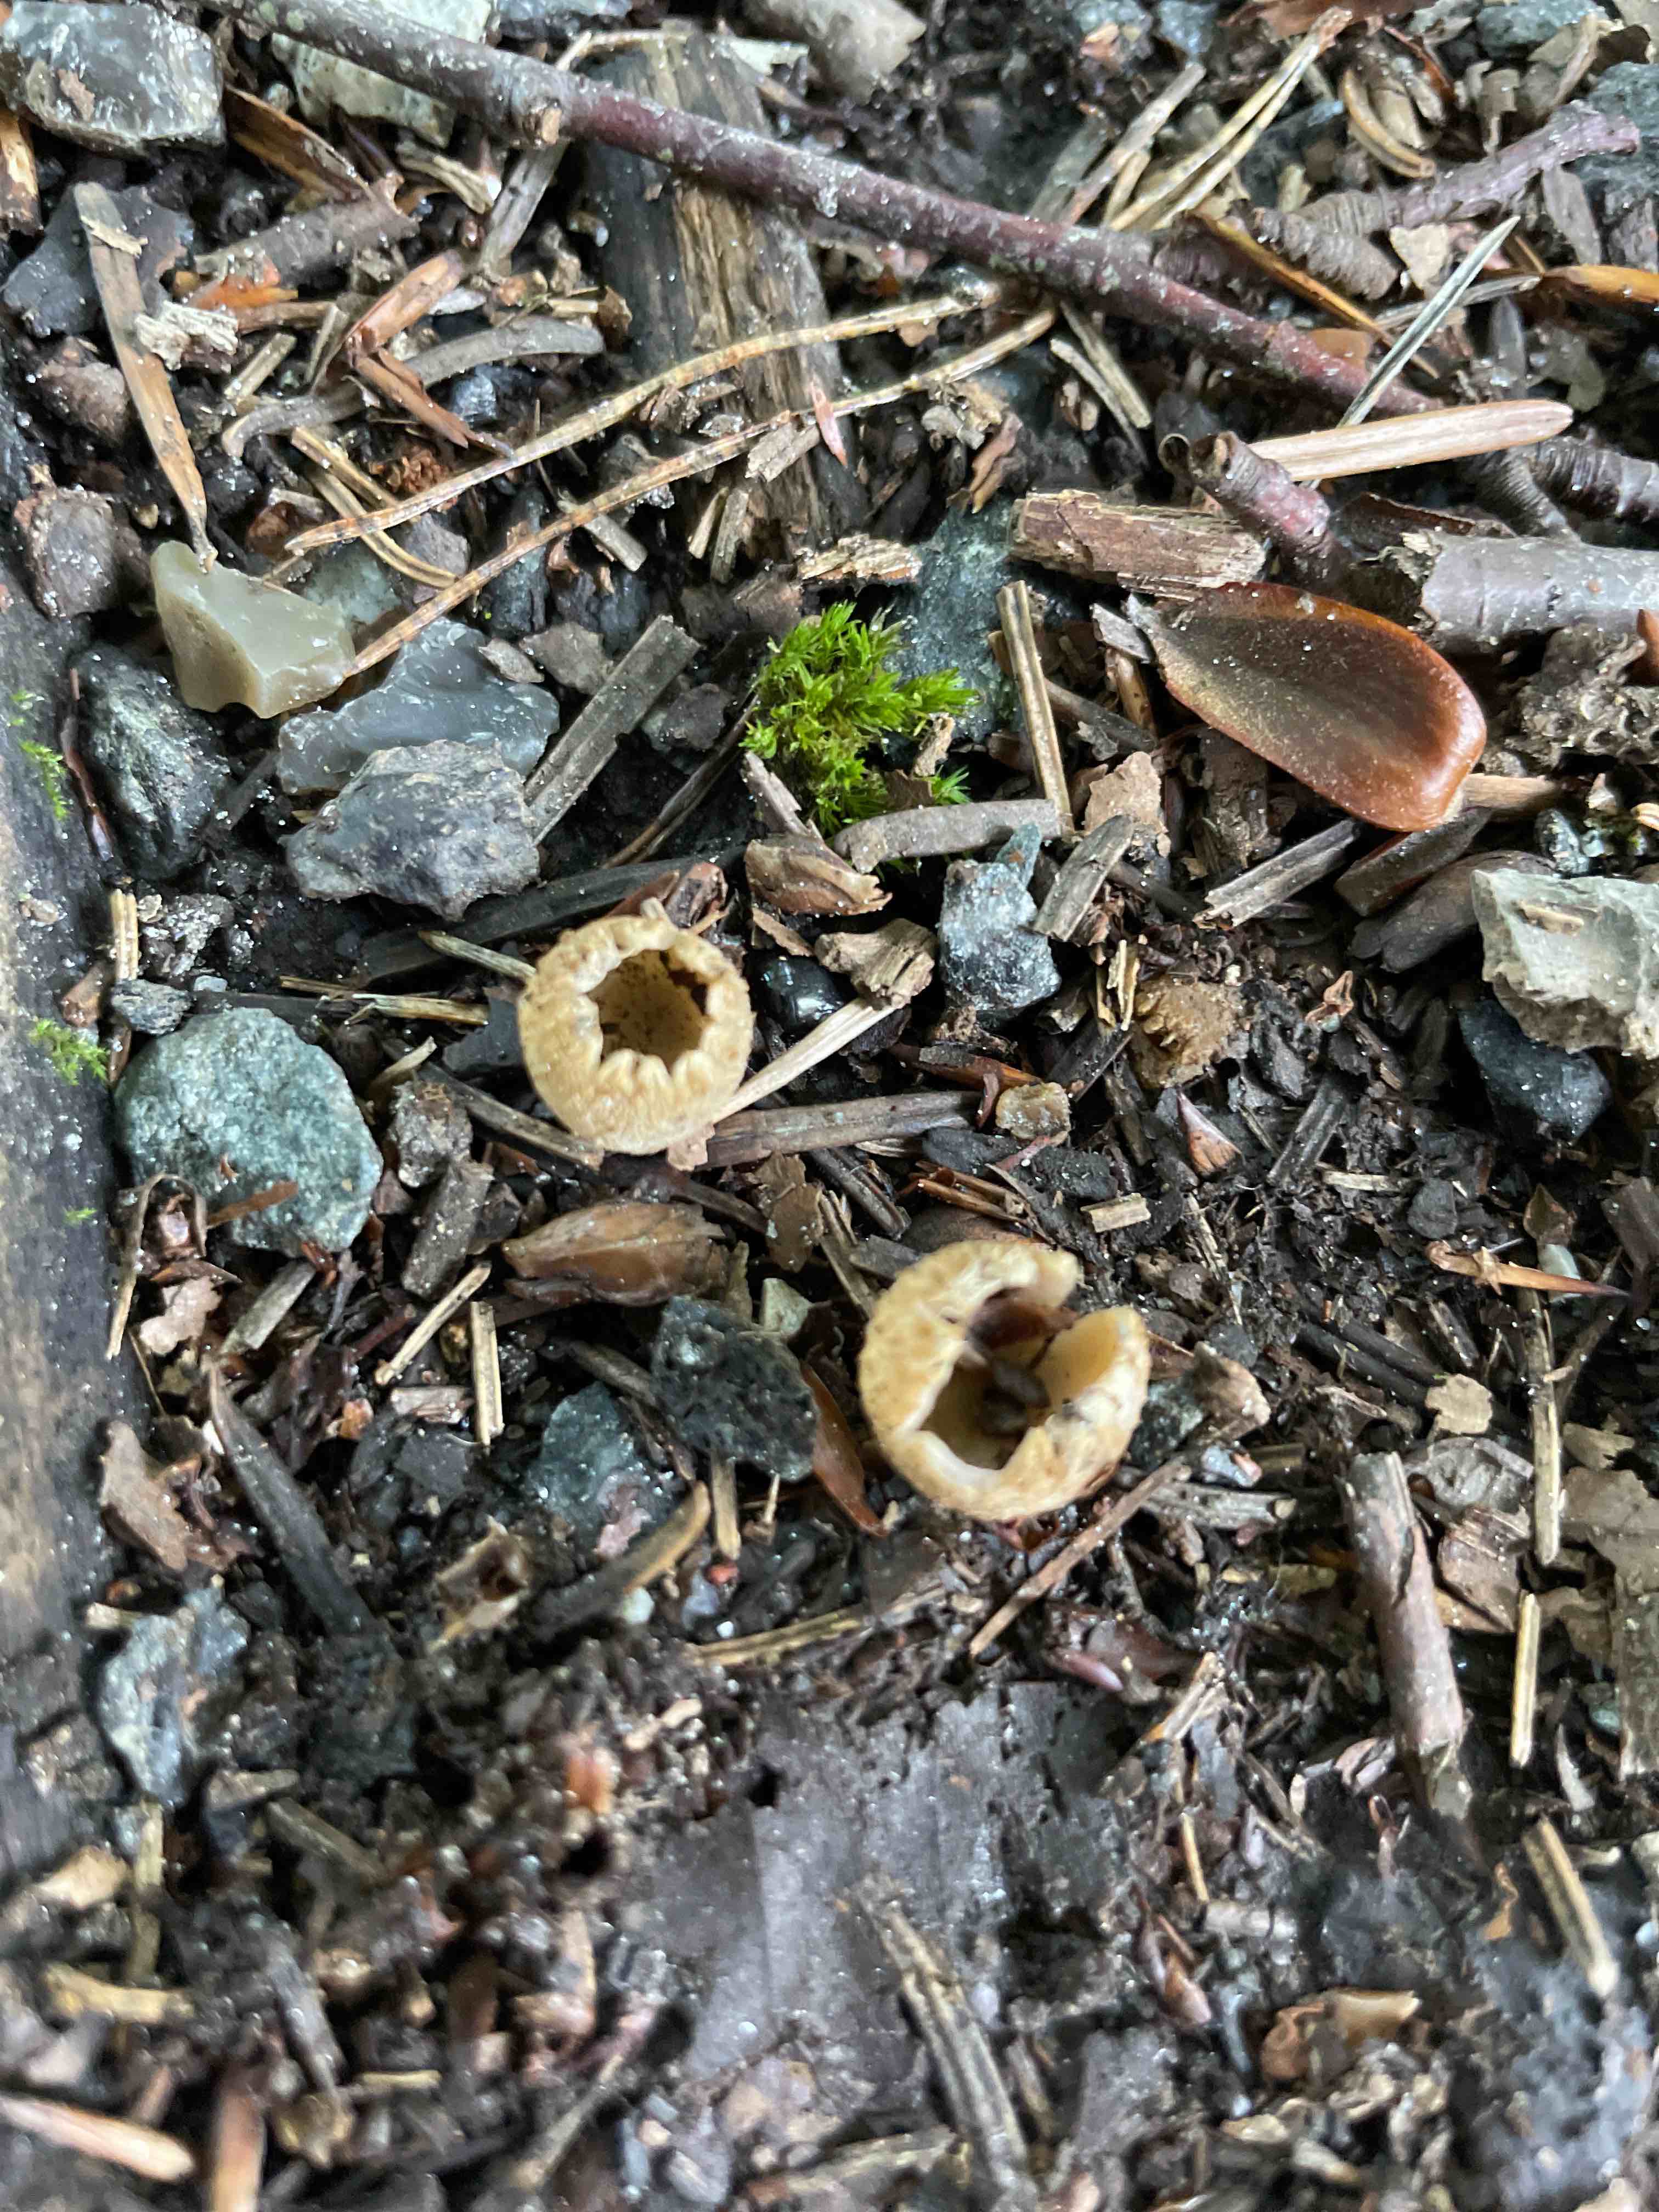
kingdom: Fungi
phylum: Ascomycota
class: Pezizomycetes
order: Pezizales
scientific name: Pezizales
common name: bægersvampordenen
